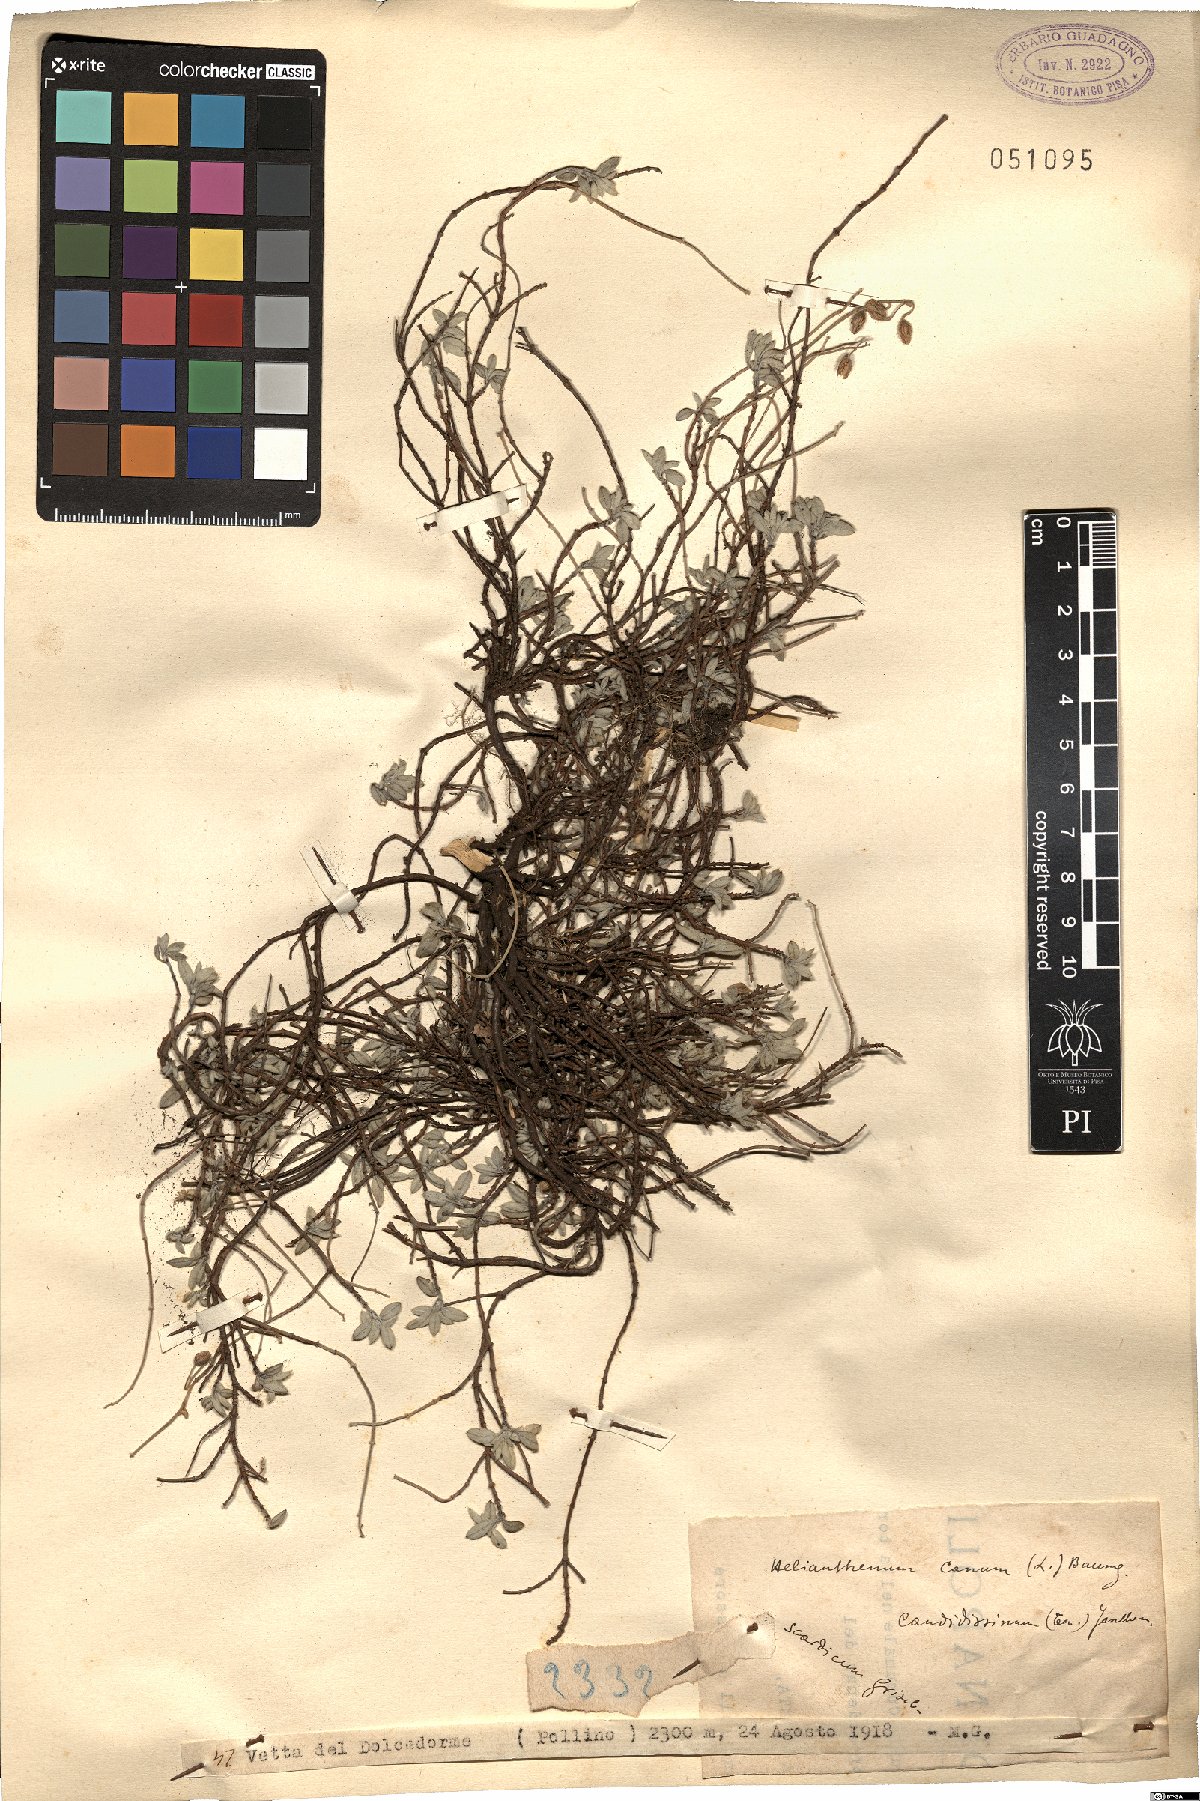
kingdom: Plantae
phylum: Tracheophyta
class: Magnoliopsida
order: Malvales
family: Cistaceae
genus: Helianthemum
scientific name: Helianthemum canum
